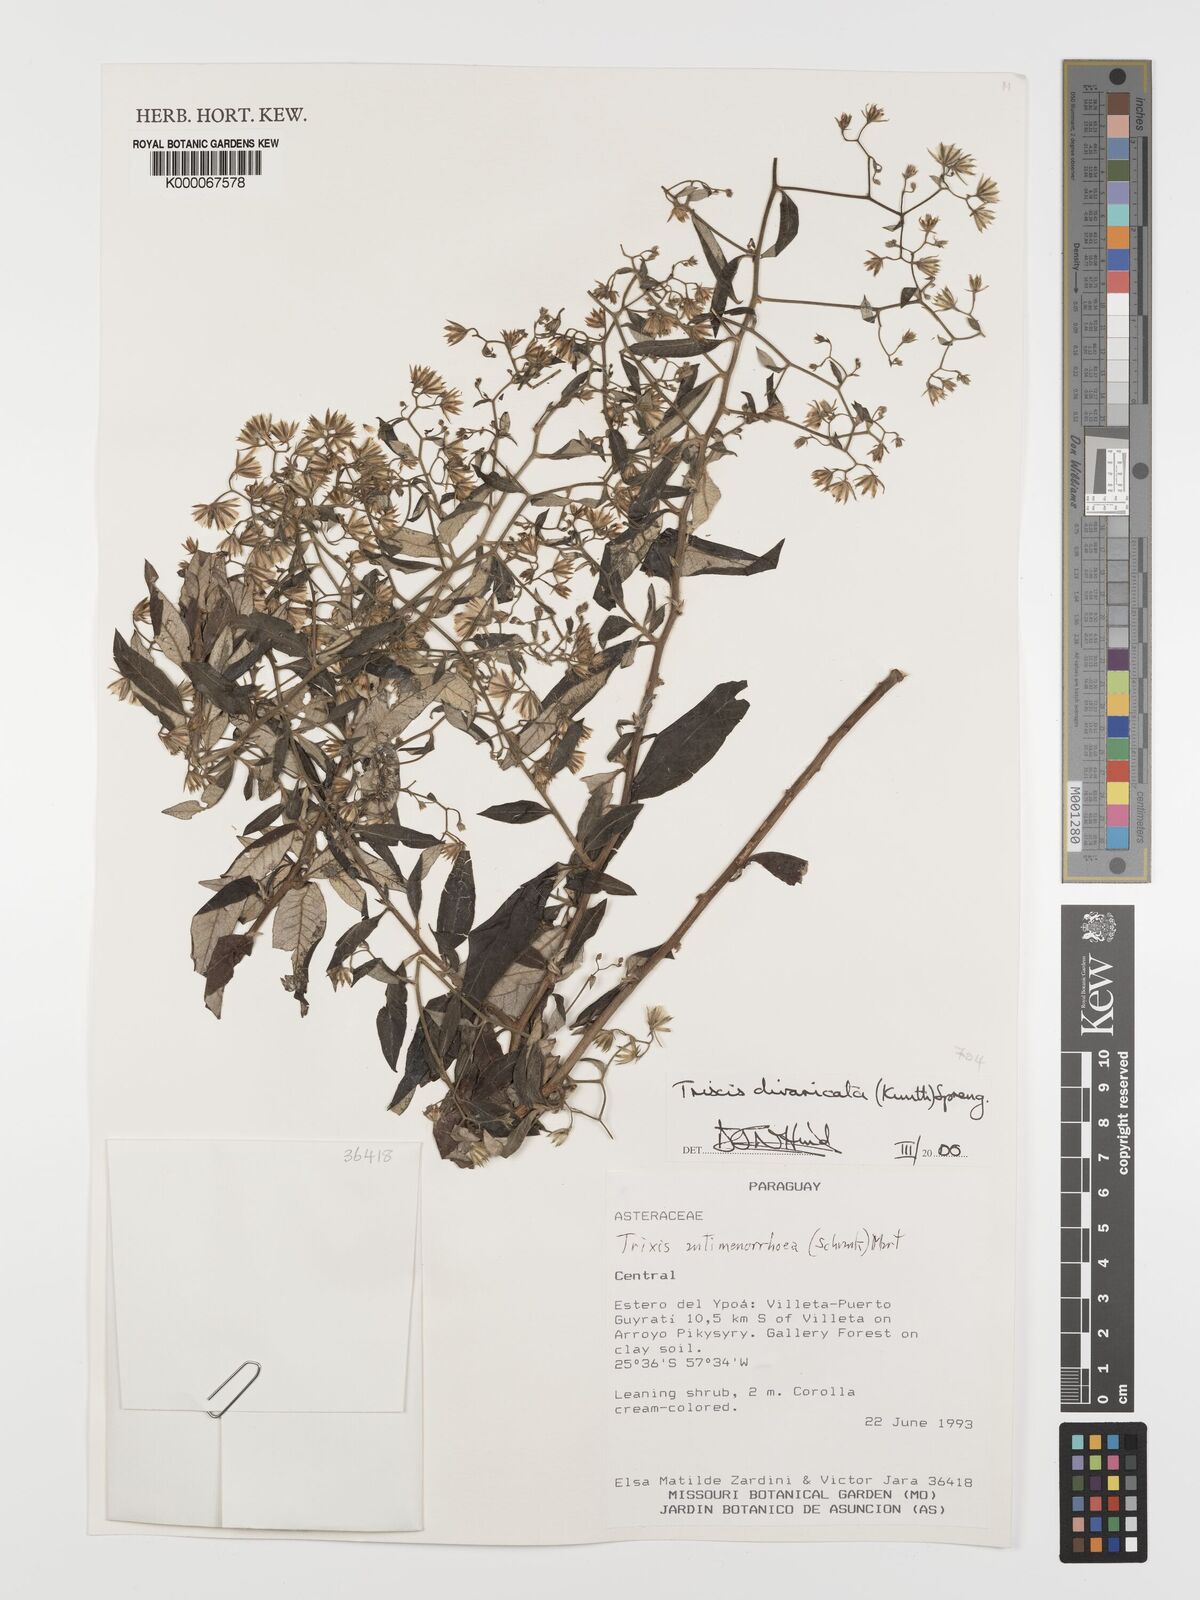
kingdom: Plantae
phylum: Tracheophyta
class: Magnoliopsida
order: Asterales
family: Asteraceae
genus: Trixis
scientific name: Trixis divaricata
